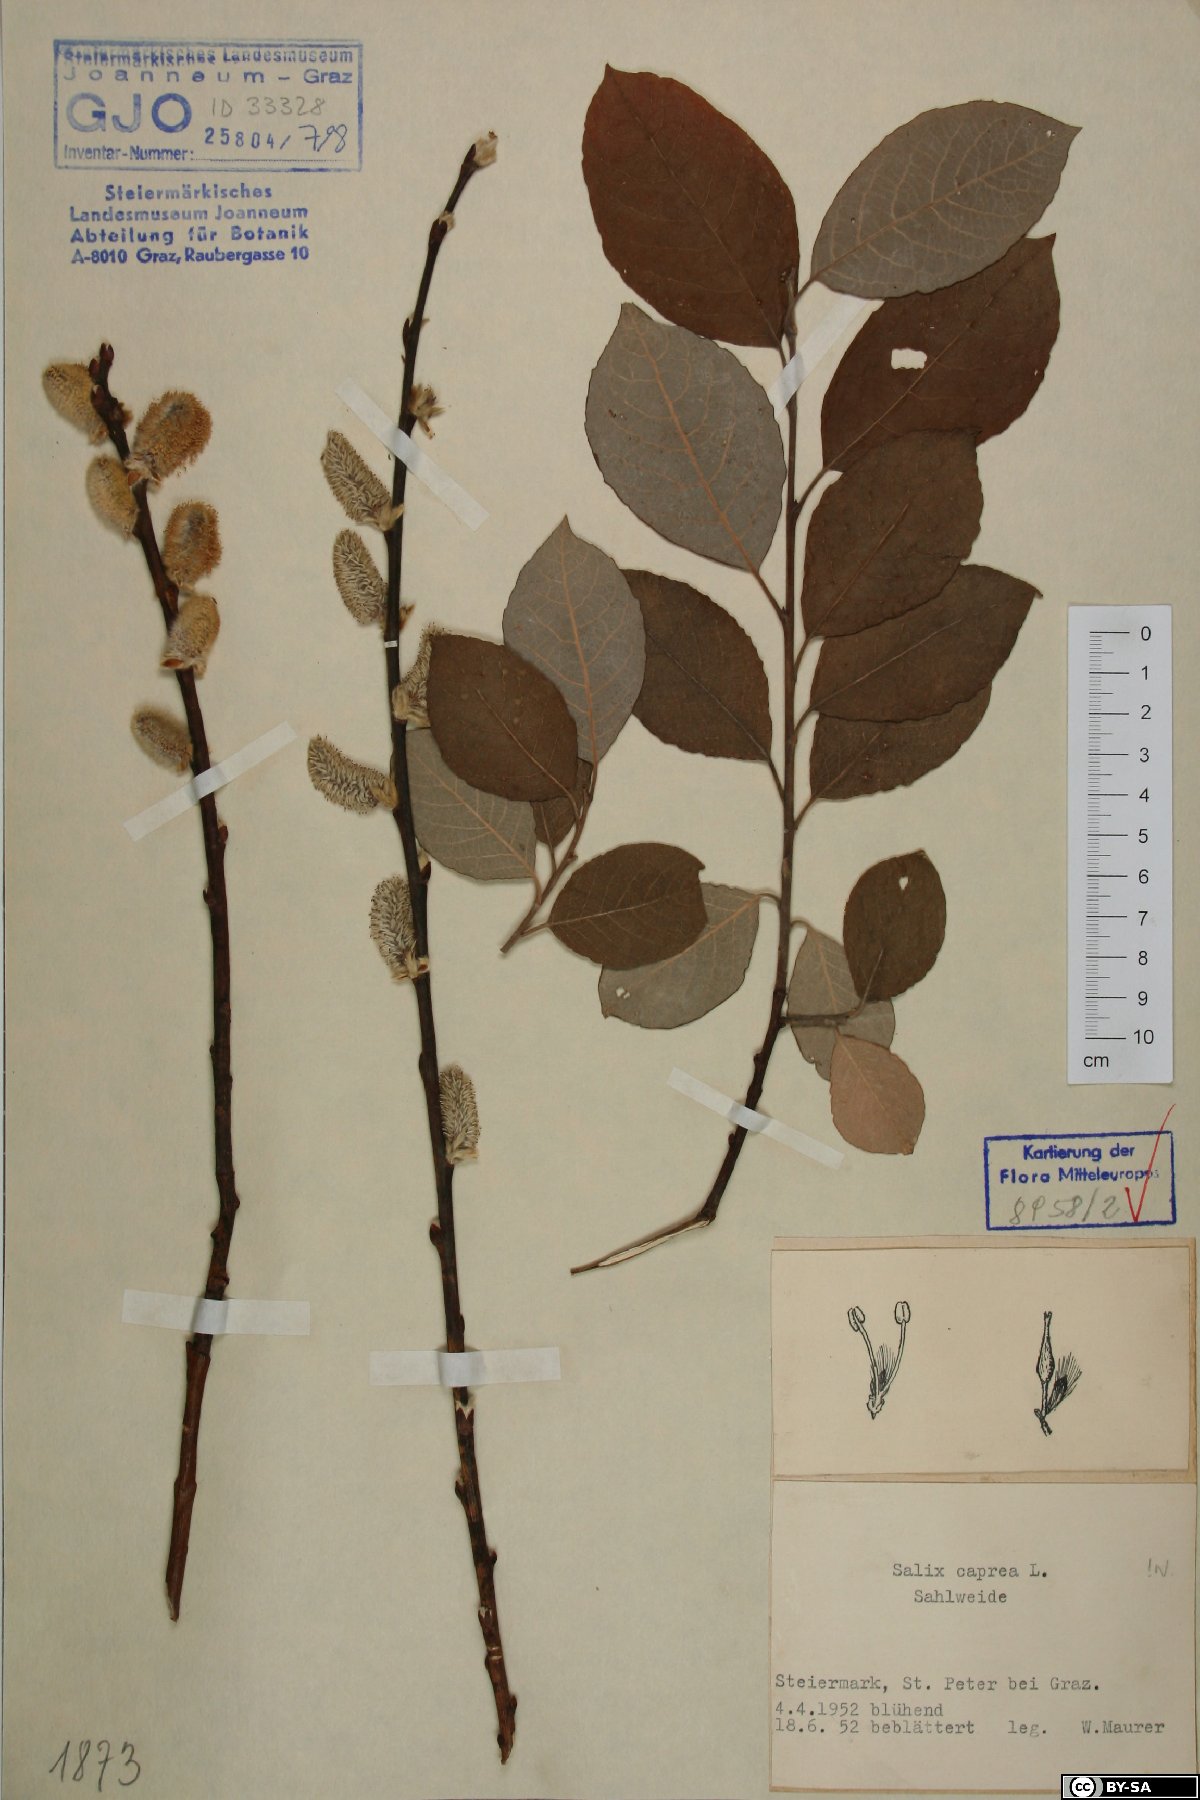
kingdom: Plantae
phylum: Tracheophyta
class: Magnoliopsida
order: Malpighiales
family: Salicaceae
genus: Salix
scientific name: Salix caprea
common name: Goat willow
